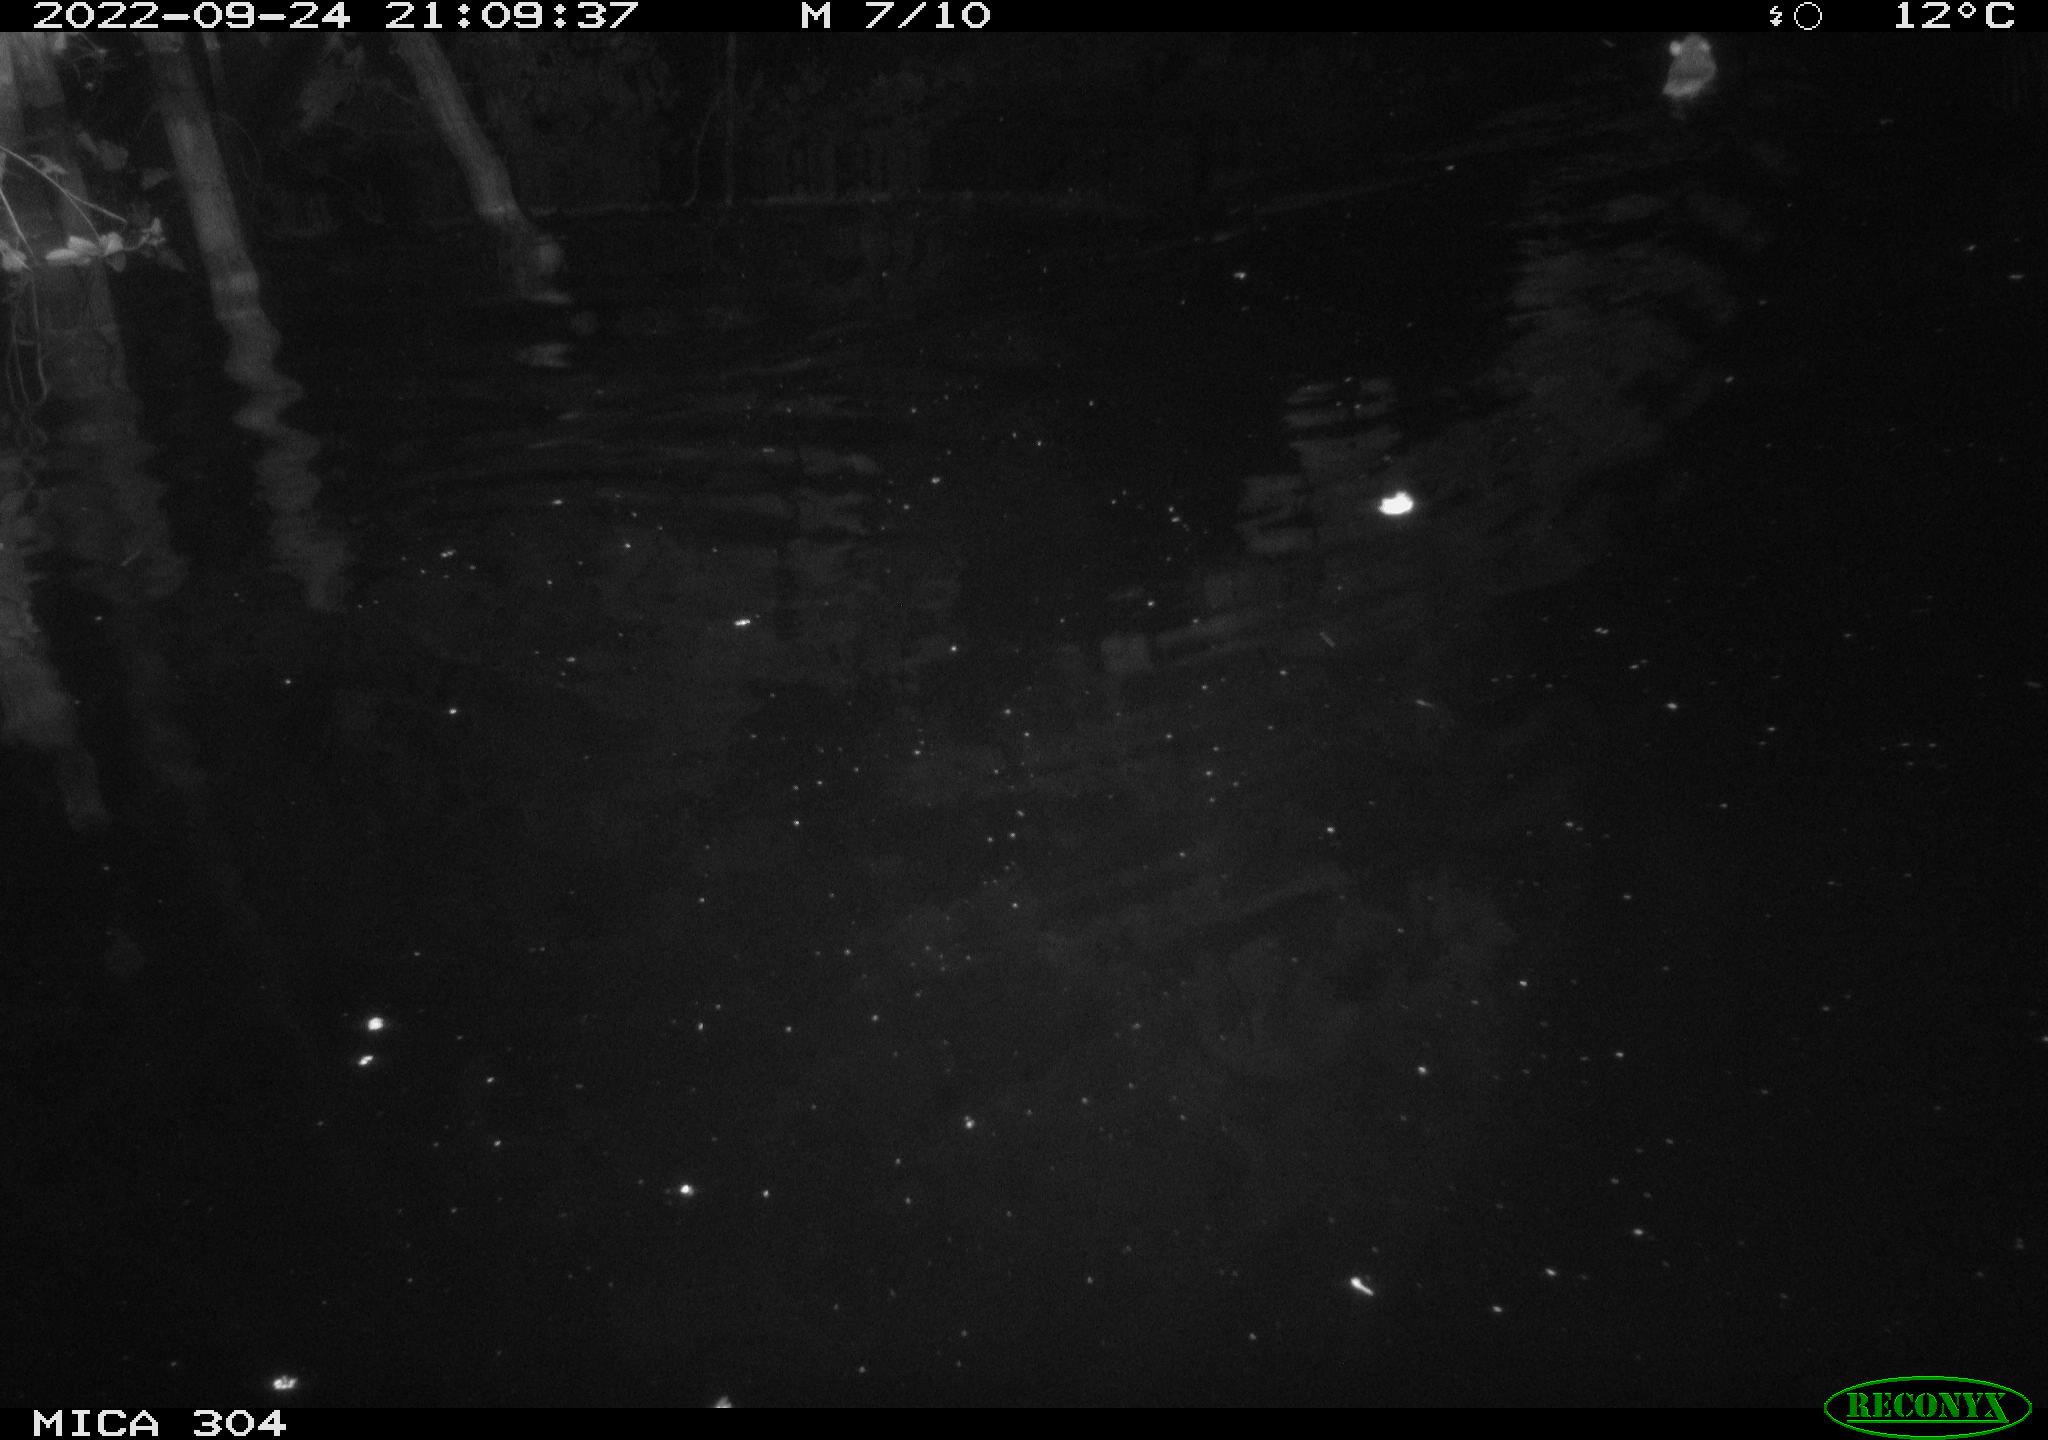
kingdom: Animalia
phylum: Chordata
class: Mammalia
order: Rodentia
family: Muridae
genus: Rattus
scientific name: Rattus norvegicus
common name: Brown rat
